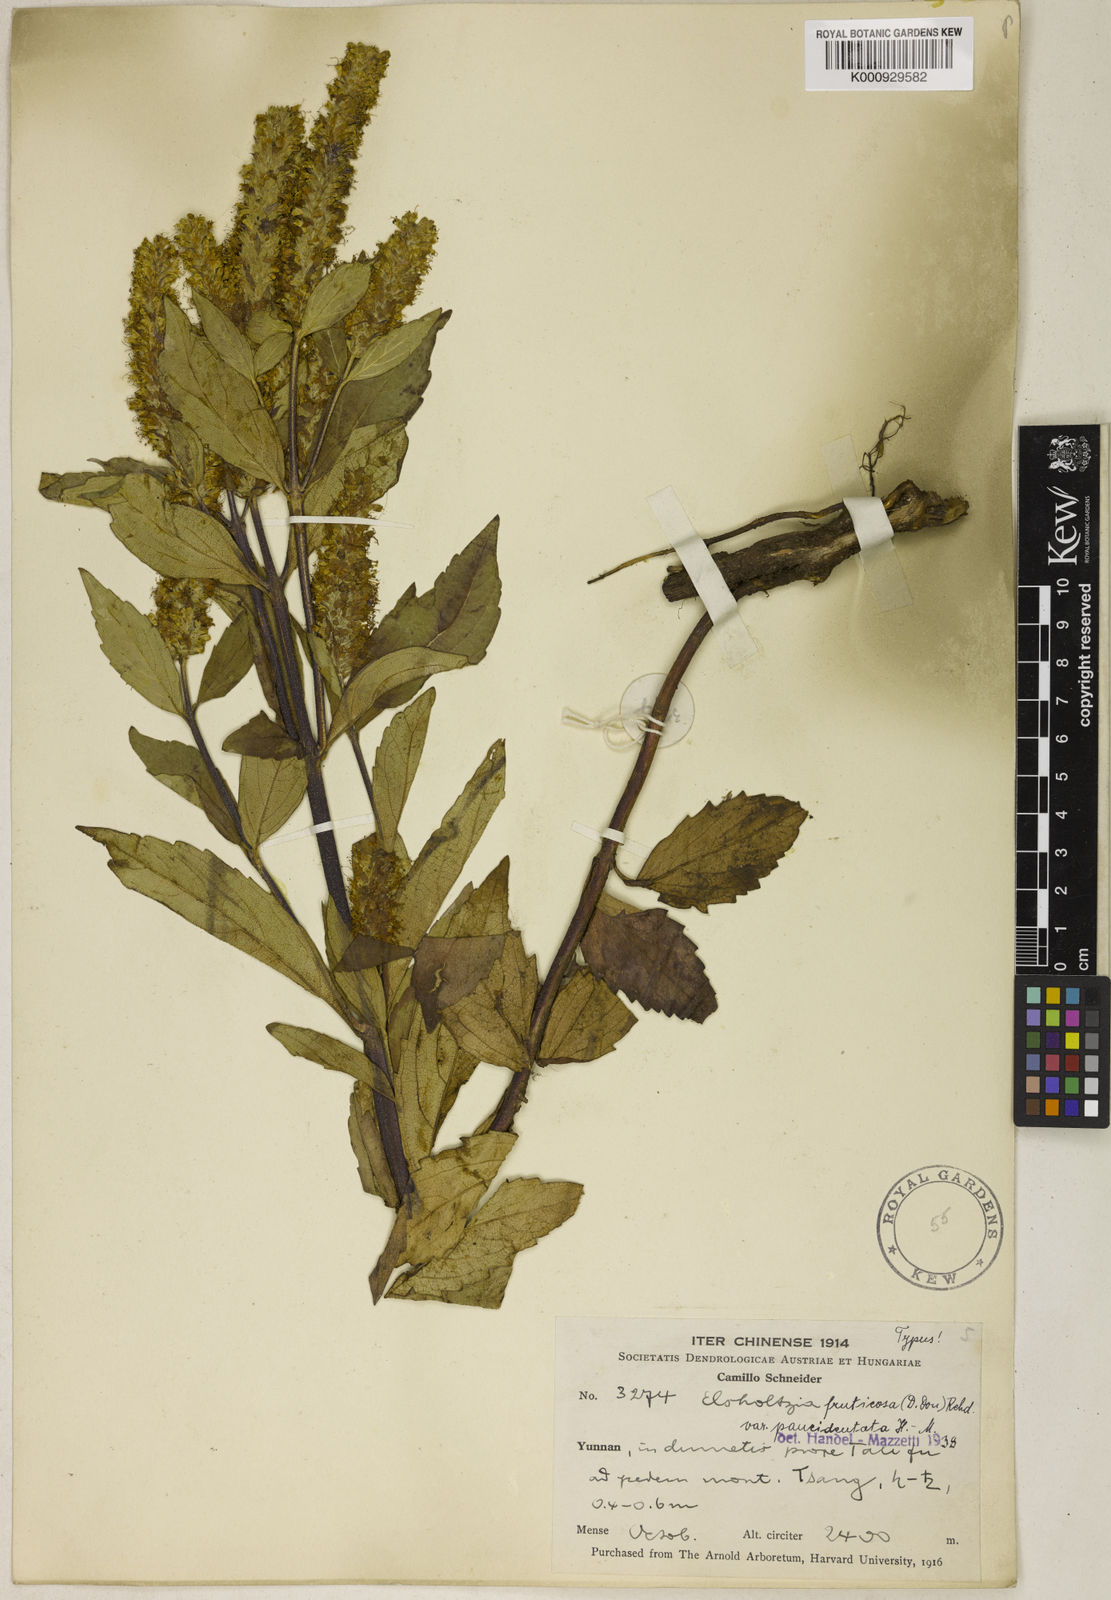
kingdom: Plantae
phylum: Tracheophyta
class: Magnoliopsida
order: Lamiales
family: Lamiaceae
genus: Elsholtzia
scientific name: Elsholtzia fruticosa
